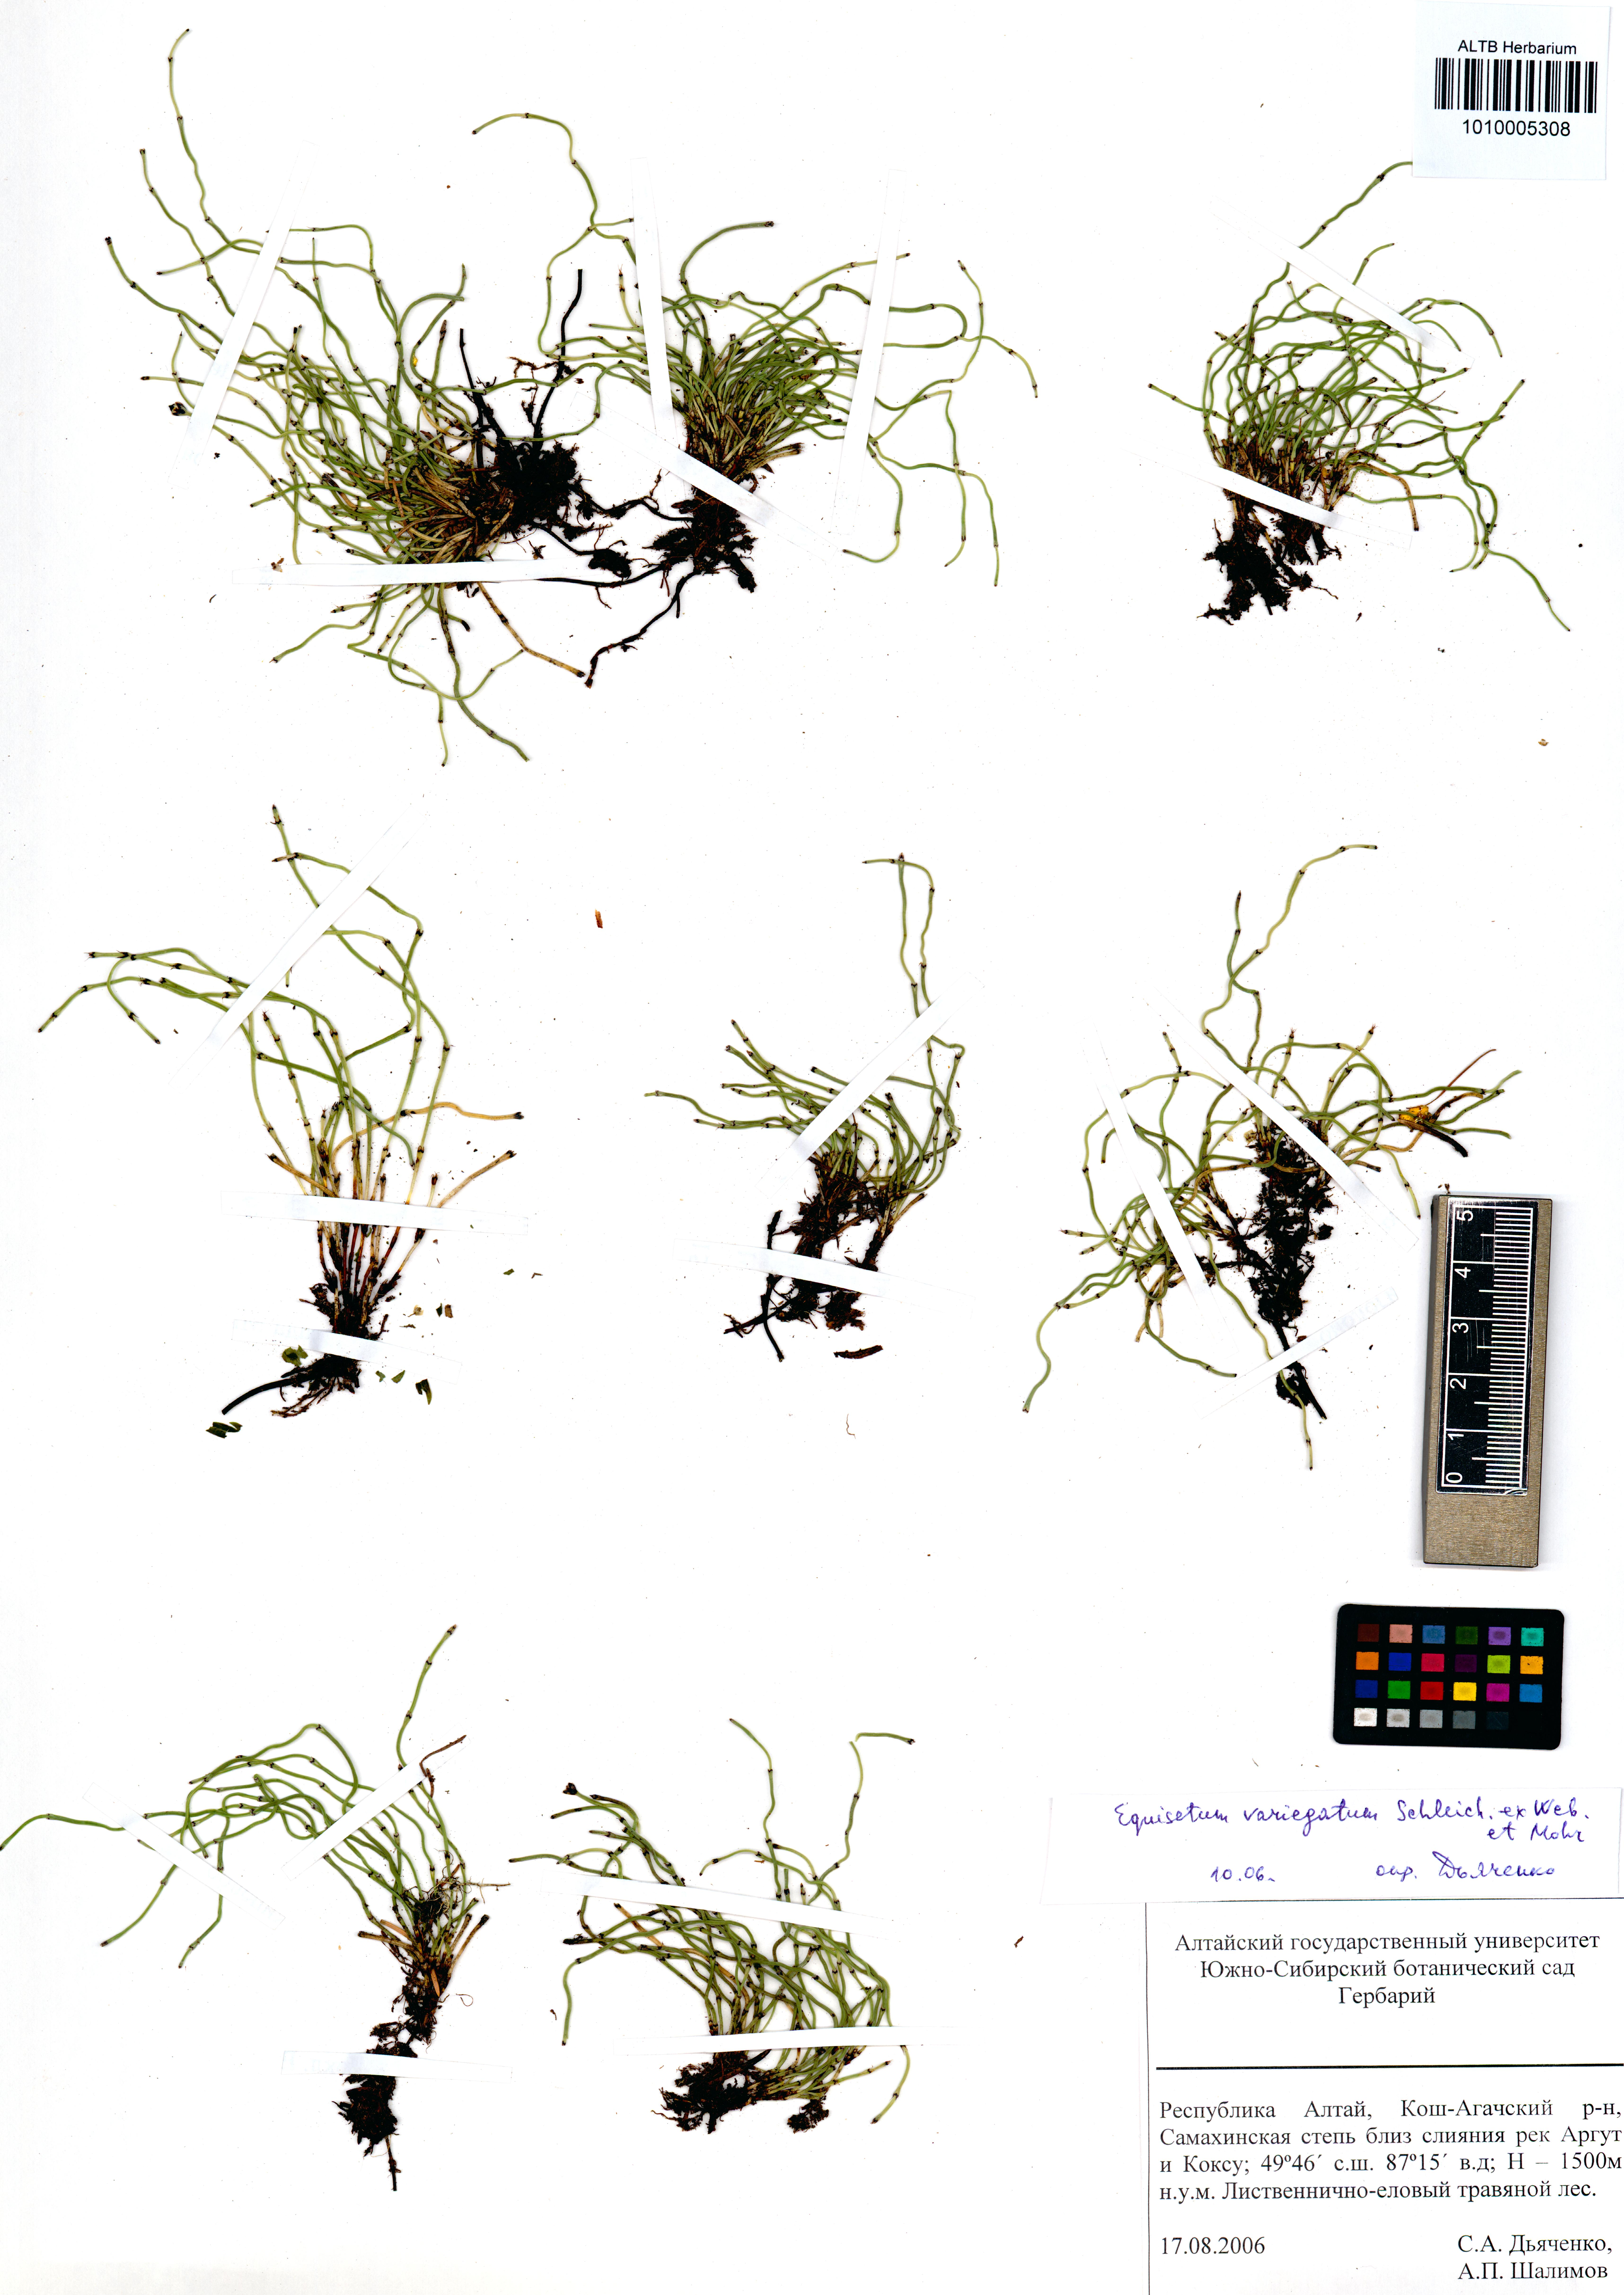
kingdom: Plantae
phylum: Tracheophyta
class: Polypodiopsida
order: Equisetales
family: Equisetaceae
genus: Equisetum
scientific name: Equisetum variegatum
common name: Variegated horsetail
